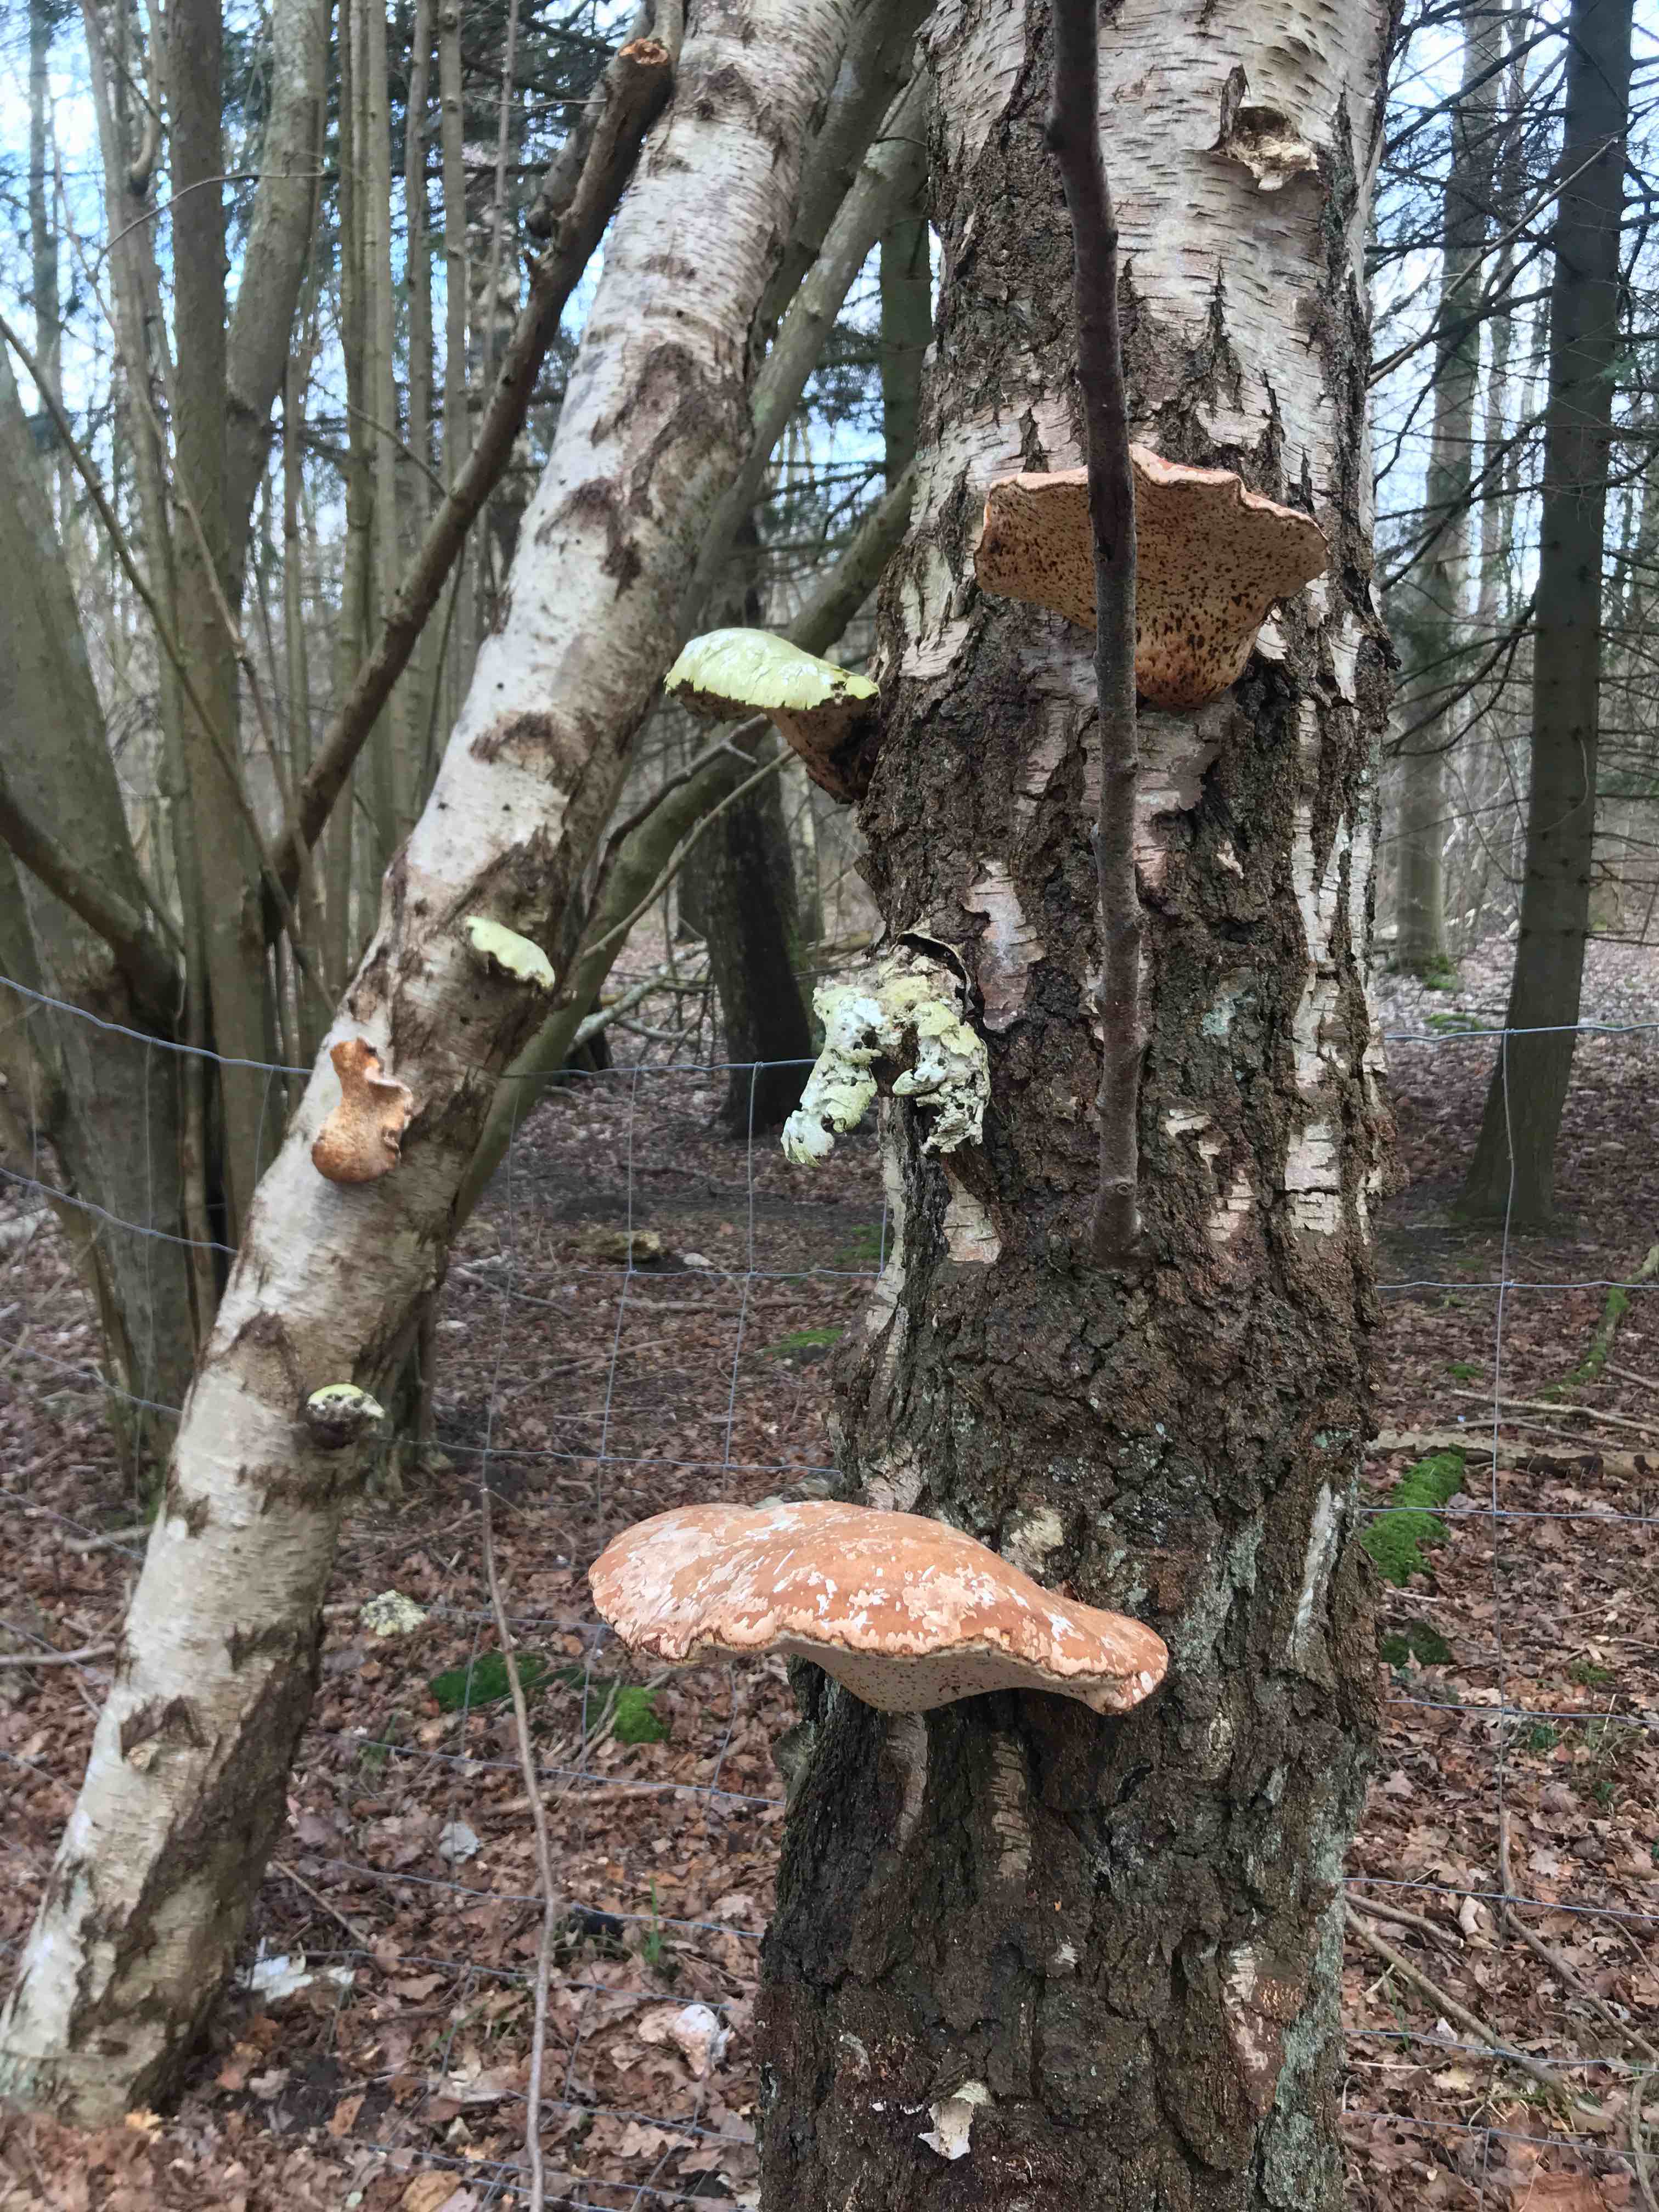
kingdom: Fungi
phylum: Basidiomycota
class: Agaricomycetes
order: Polyporales
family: Fomitopsidaceae
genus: Fomitopsis
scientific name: Fomitopsis betulina
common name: birkeporesvamp
